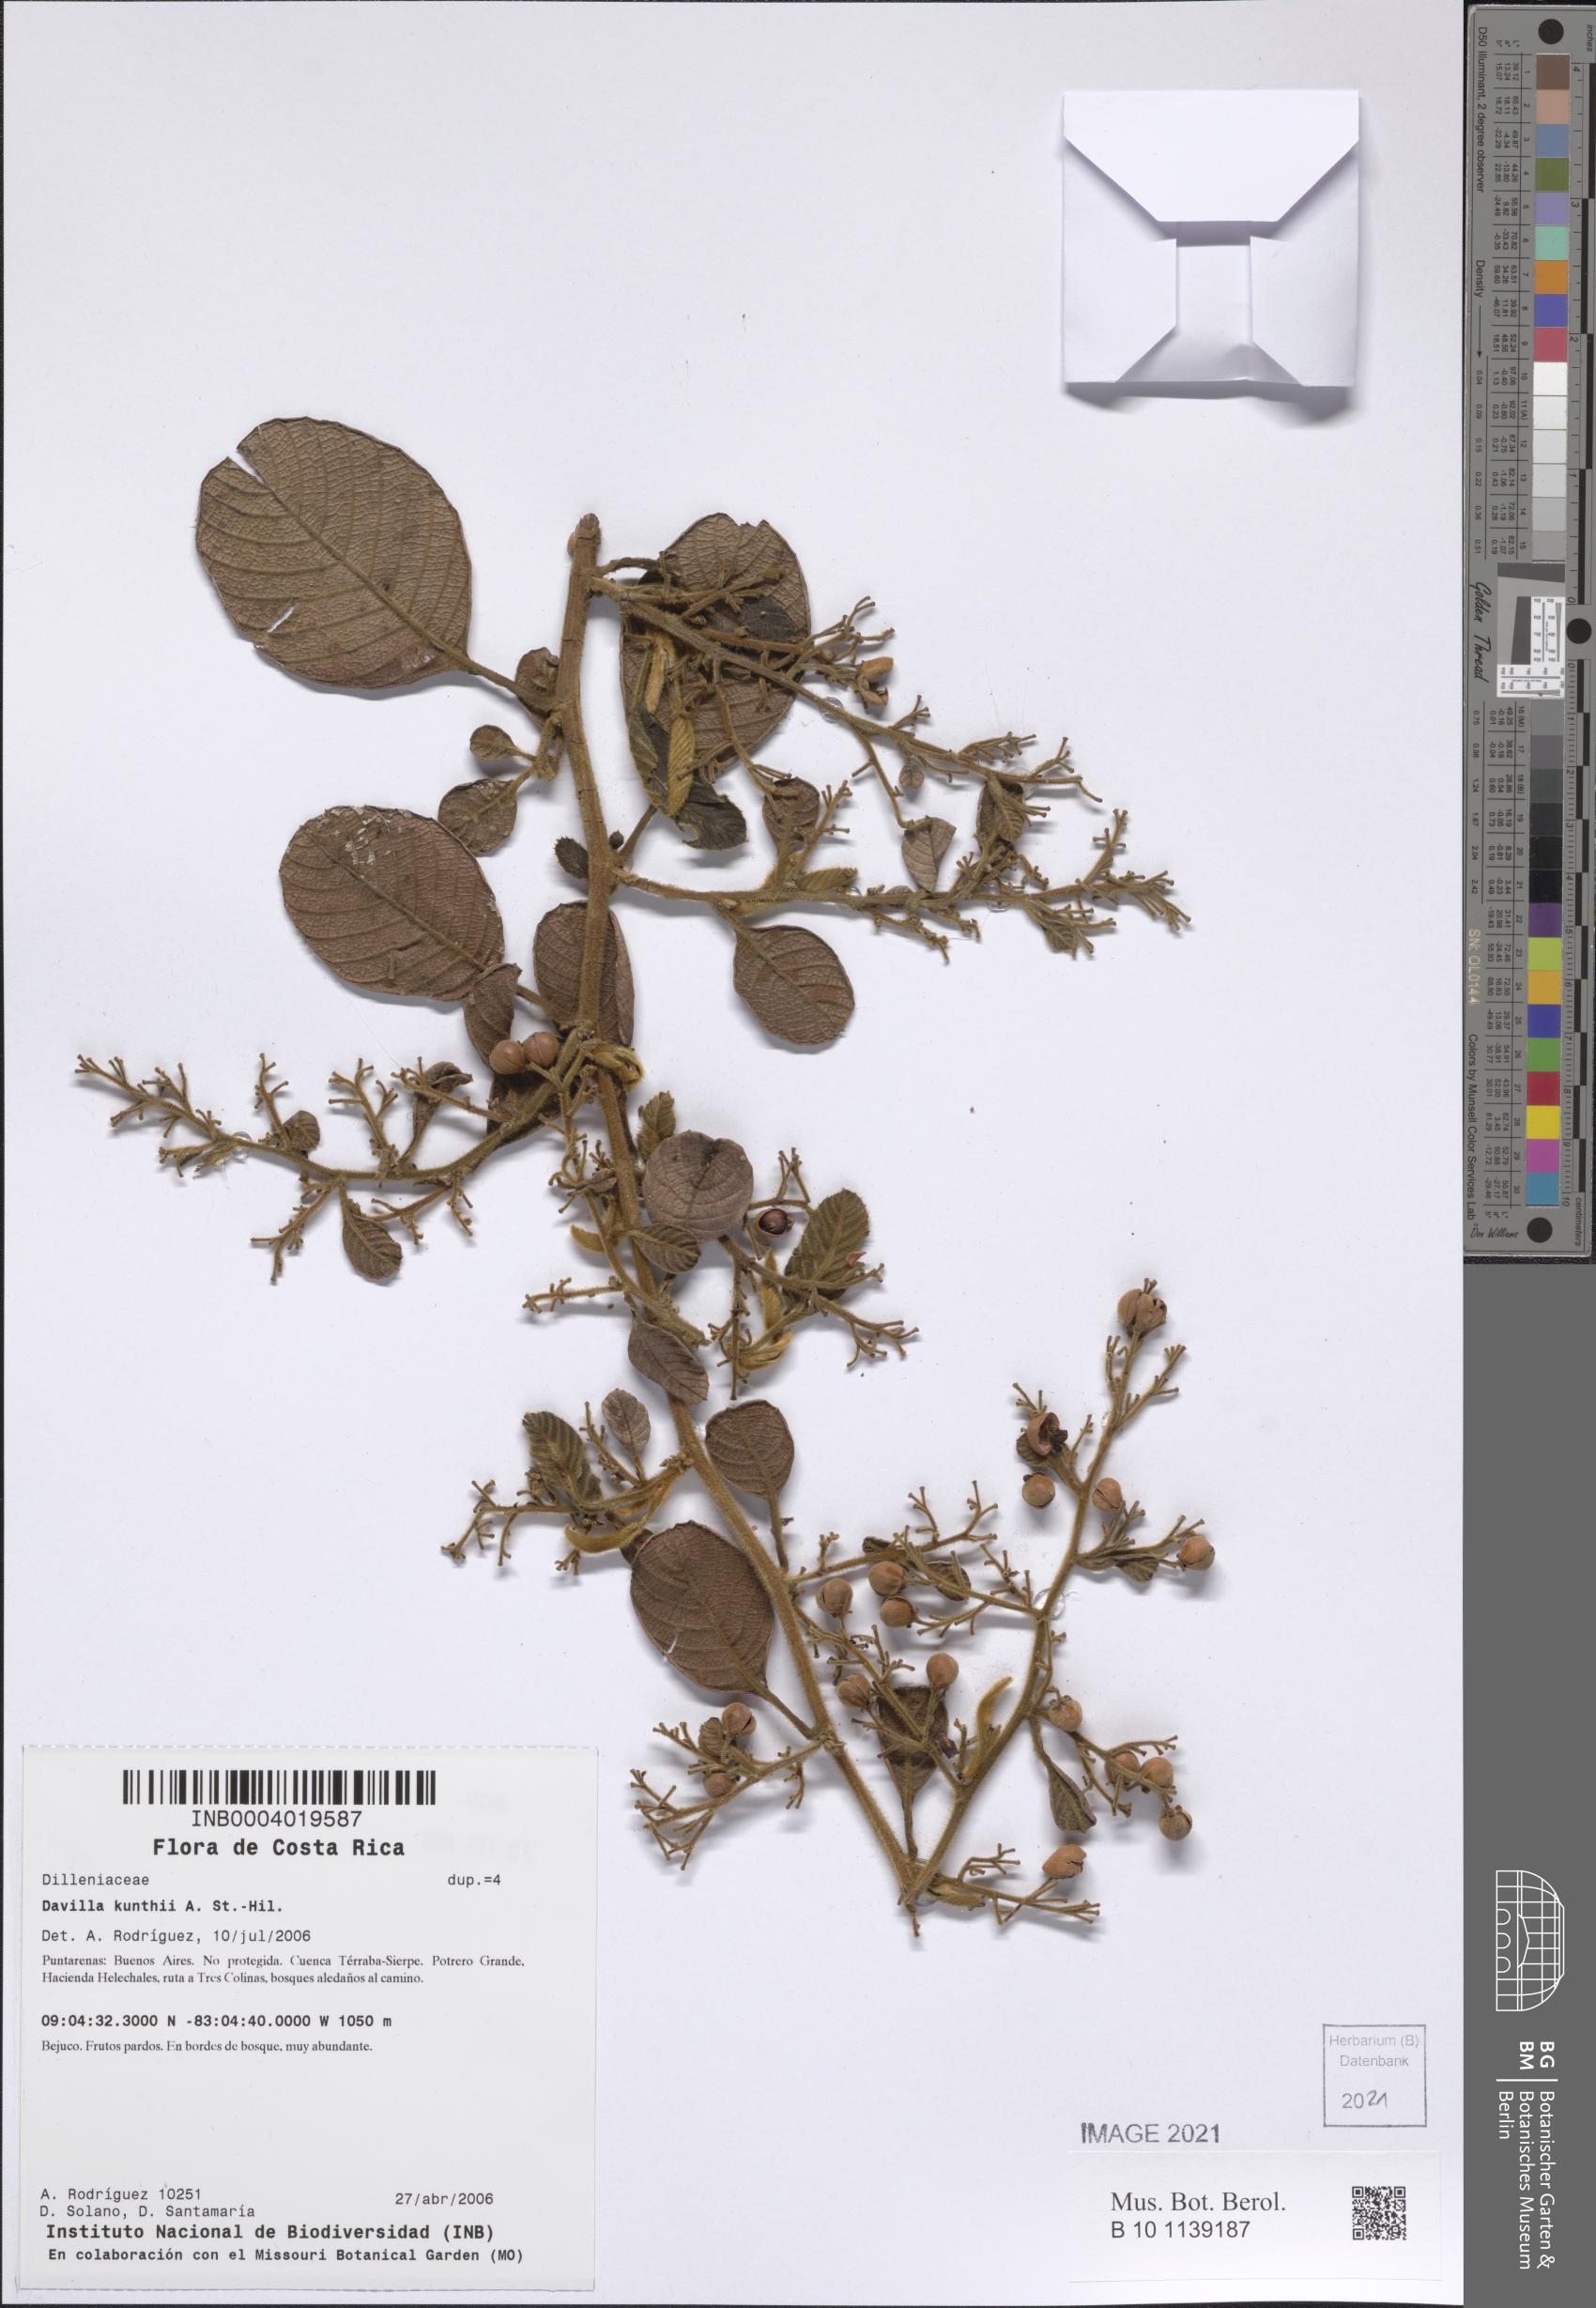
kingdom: Plantae
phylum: Tracheophyta
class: Magnoliopsida
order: Dilleniales
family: Dilleniaceae
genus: Davilla
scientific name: Davilla kunthii
